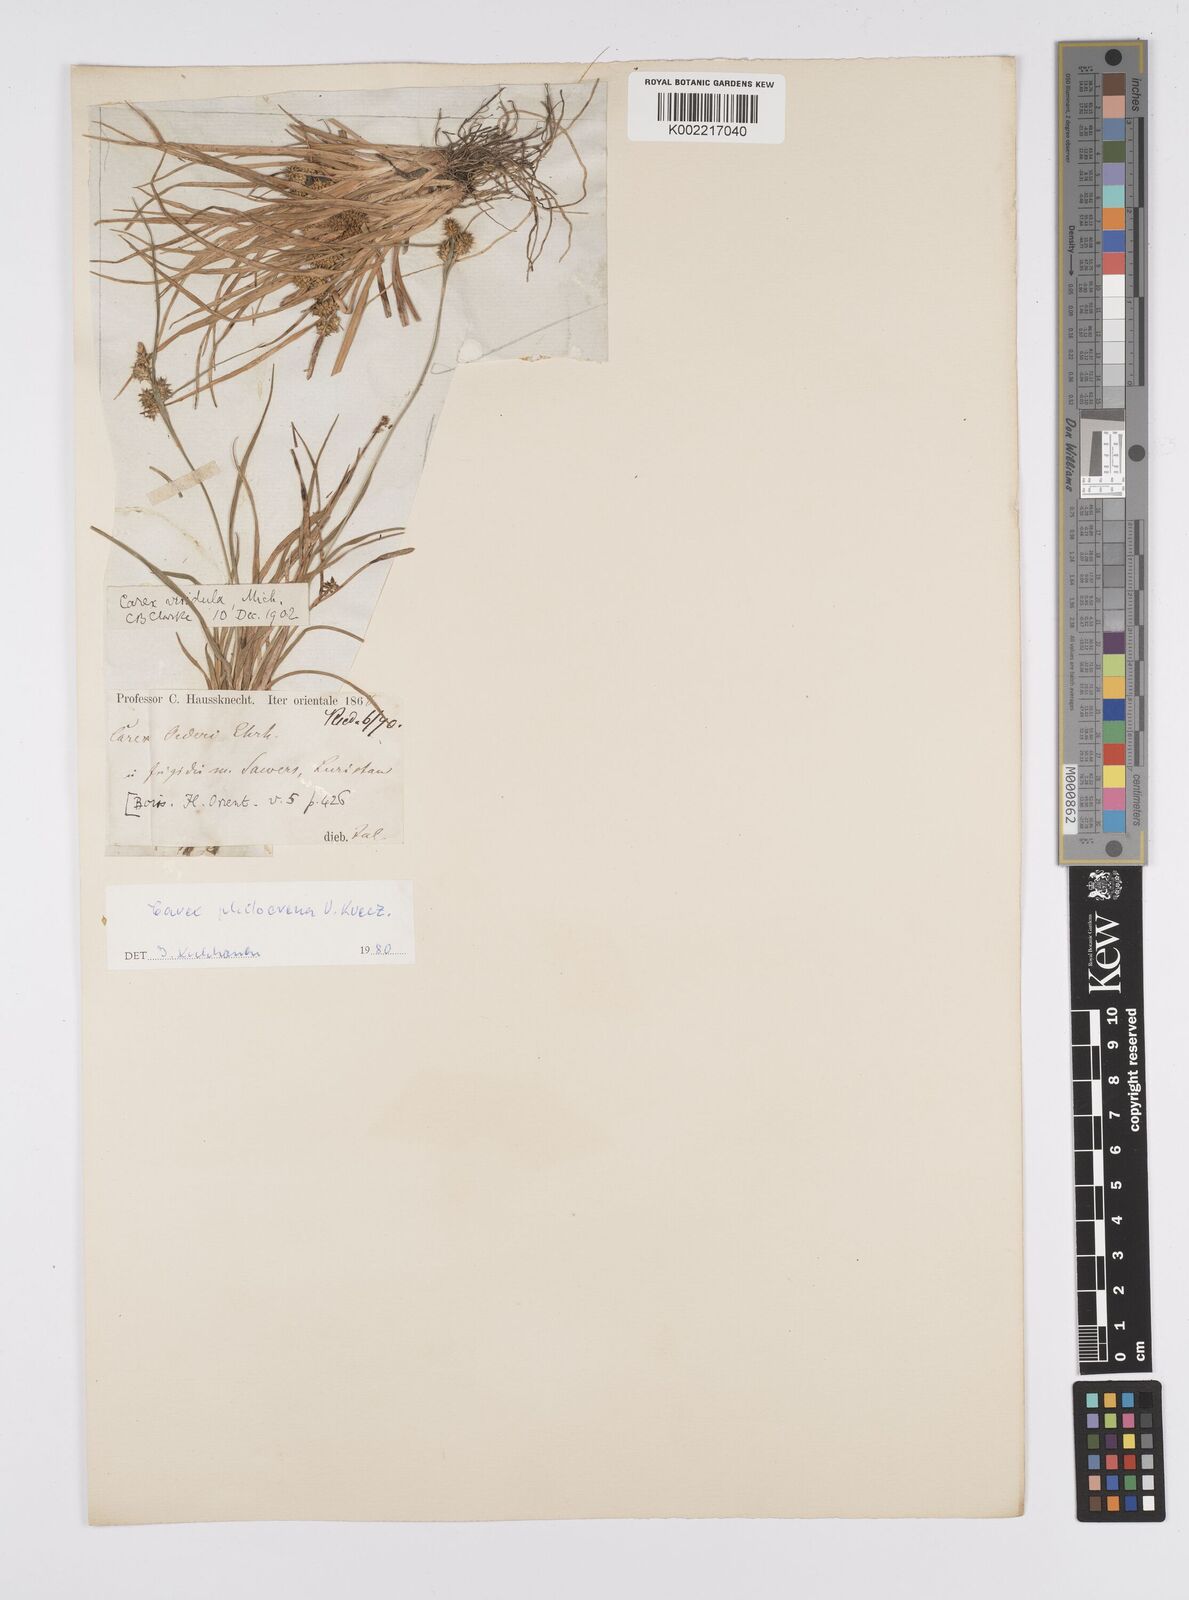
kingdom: Plantae
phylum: Tracheophyta
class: Liliopsida
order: Poales
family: Cyperaceae
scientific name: Cyperaceae
